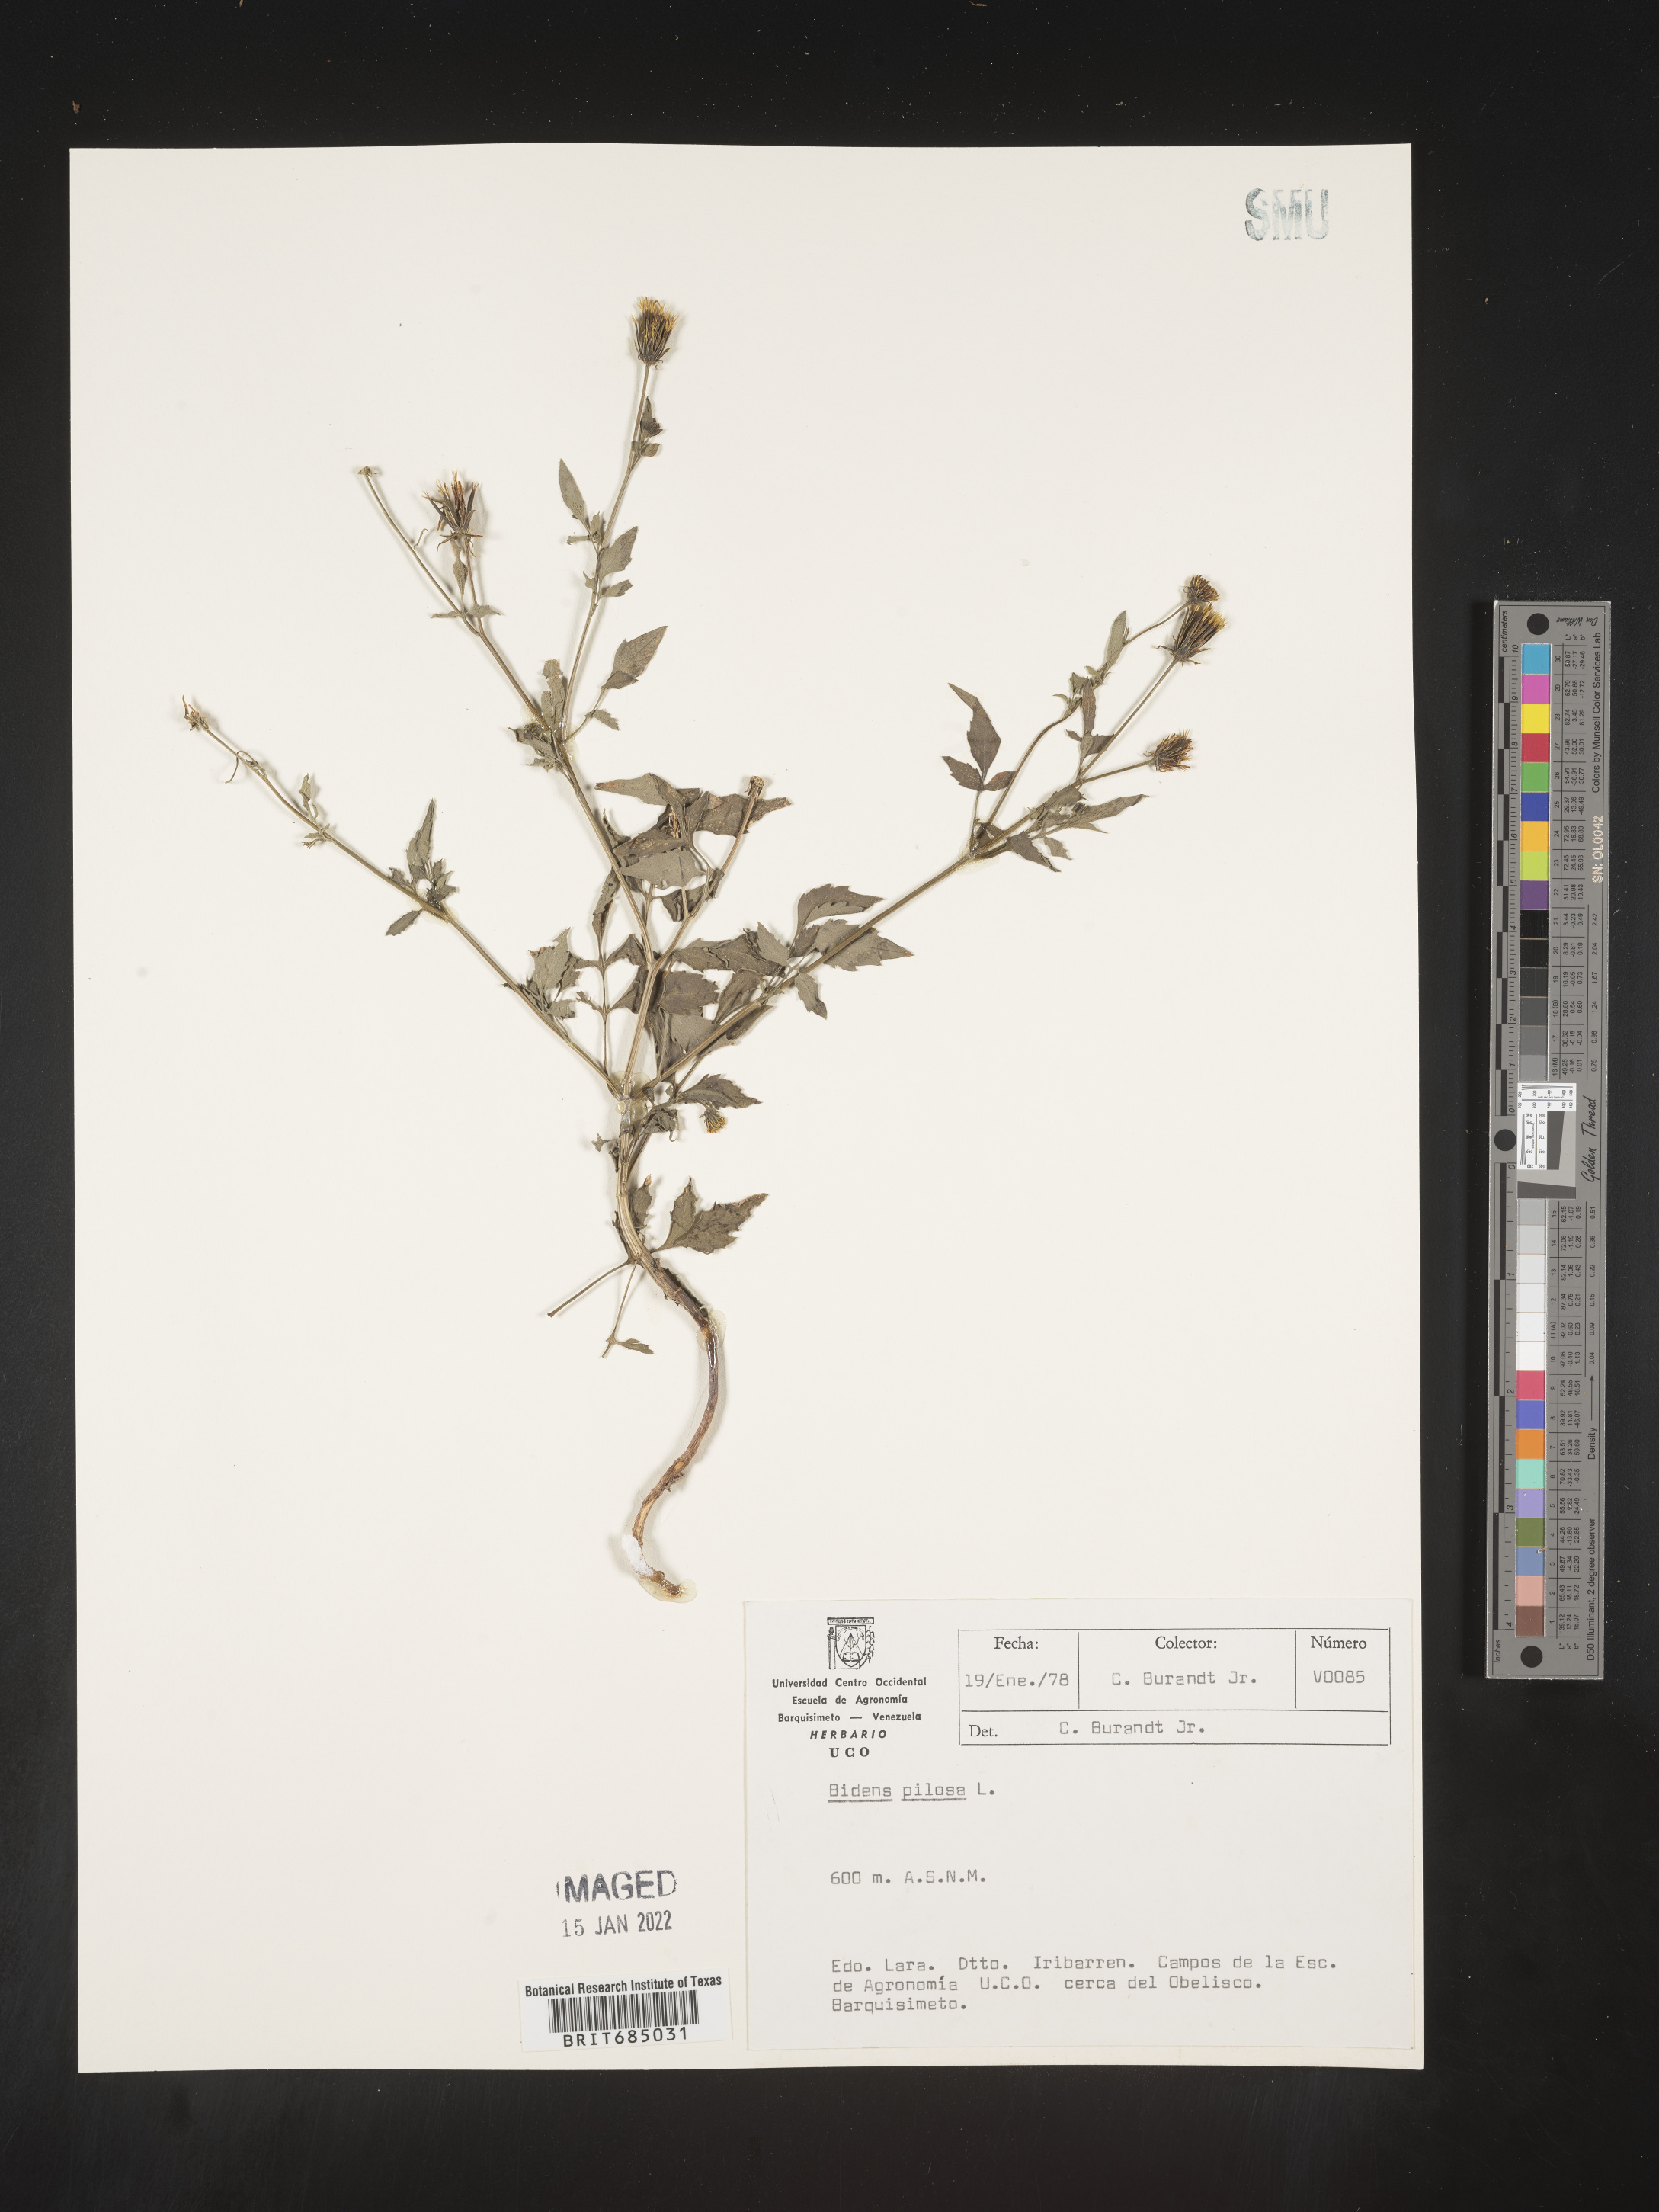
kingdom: Plantae
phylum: Tracheophyta
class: Magnoliopsida
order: Asterales
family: Asteraceae
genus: Bidens
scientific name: Bidens
